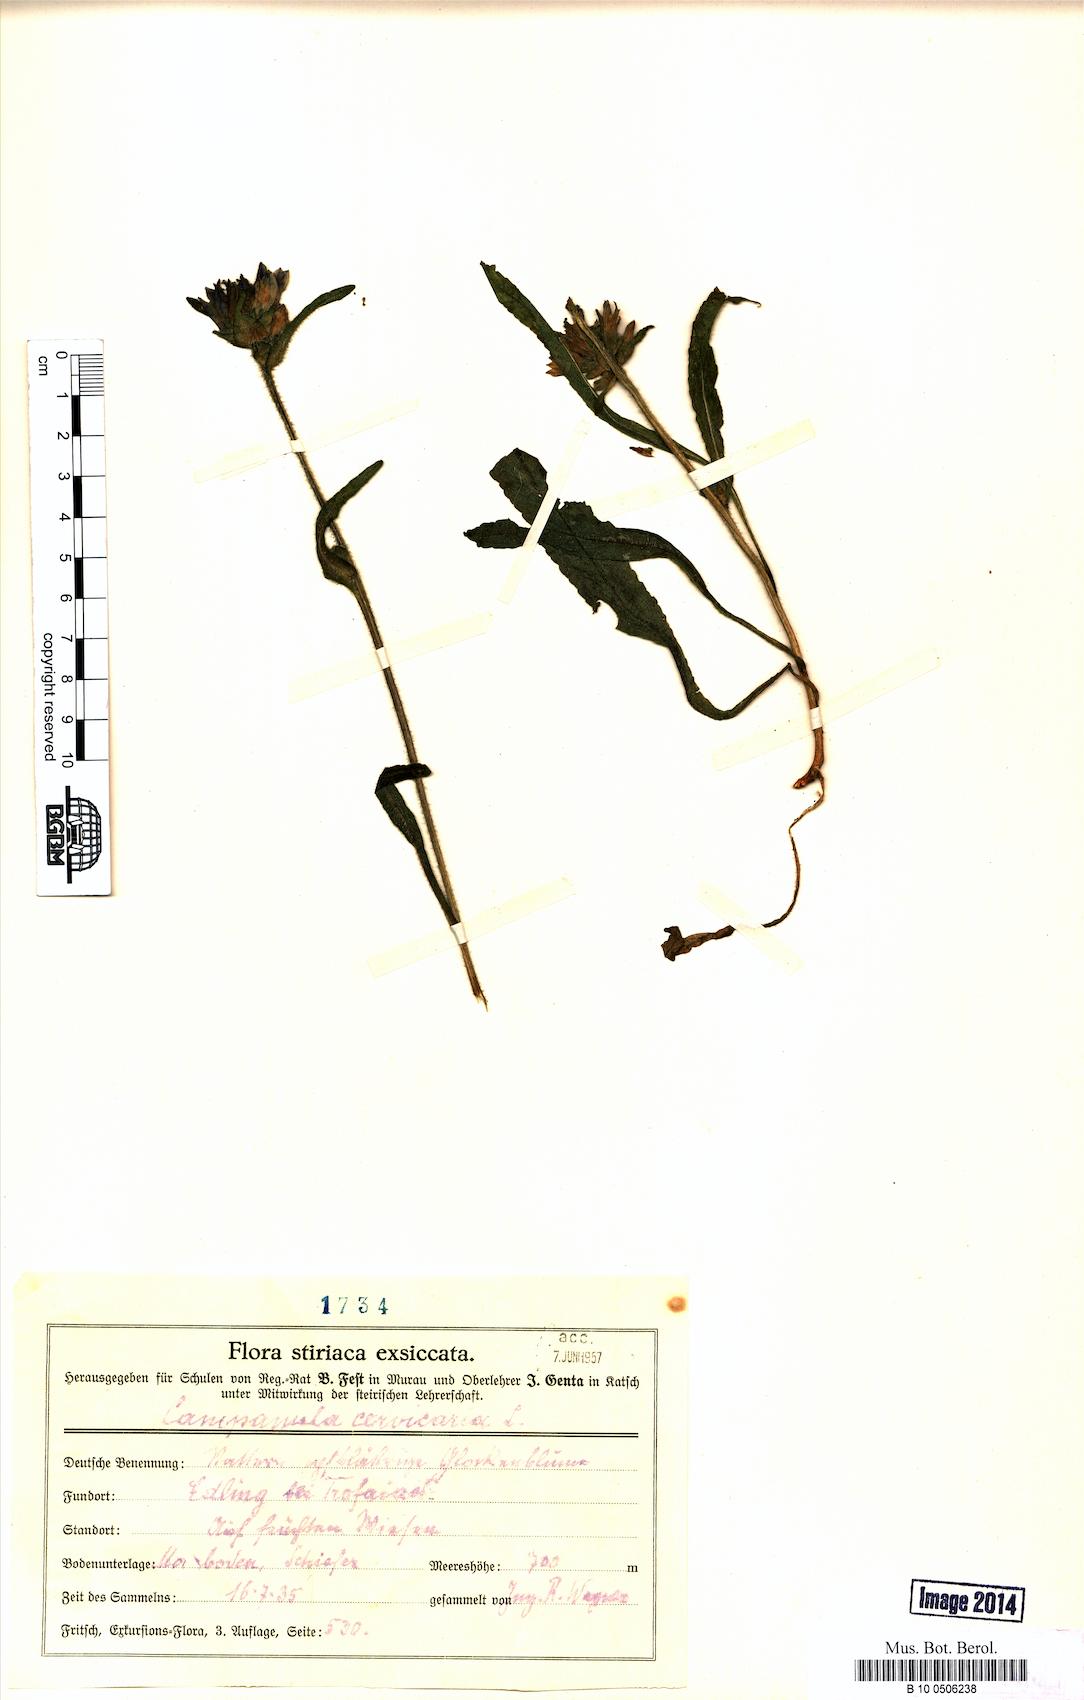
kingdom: Plantae
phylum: Tracheophyta
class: Magnoliopsida
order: Asterales
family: Campanulaceae
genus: Campanula
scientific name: Campanula cervicaria
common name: Bristly bellflower
